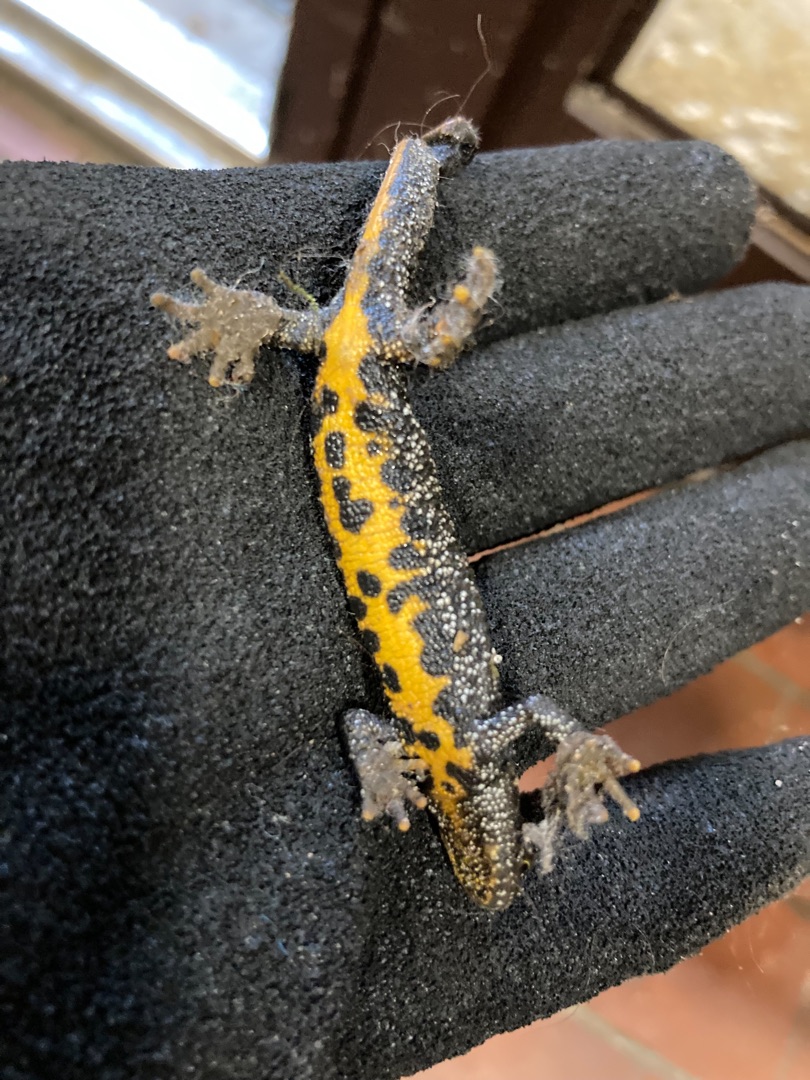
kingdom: Animalia
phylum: Chordata
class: Amphibia
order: Caudata
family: Salamandridae
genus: Triturus
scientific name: Triturus cristatus
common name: Stor vandsalamander
